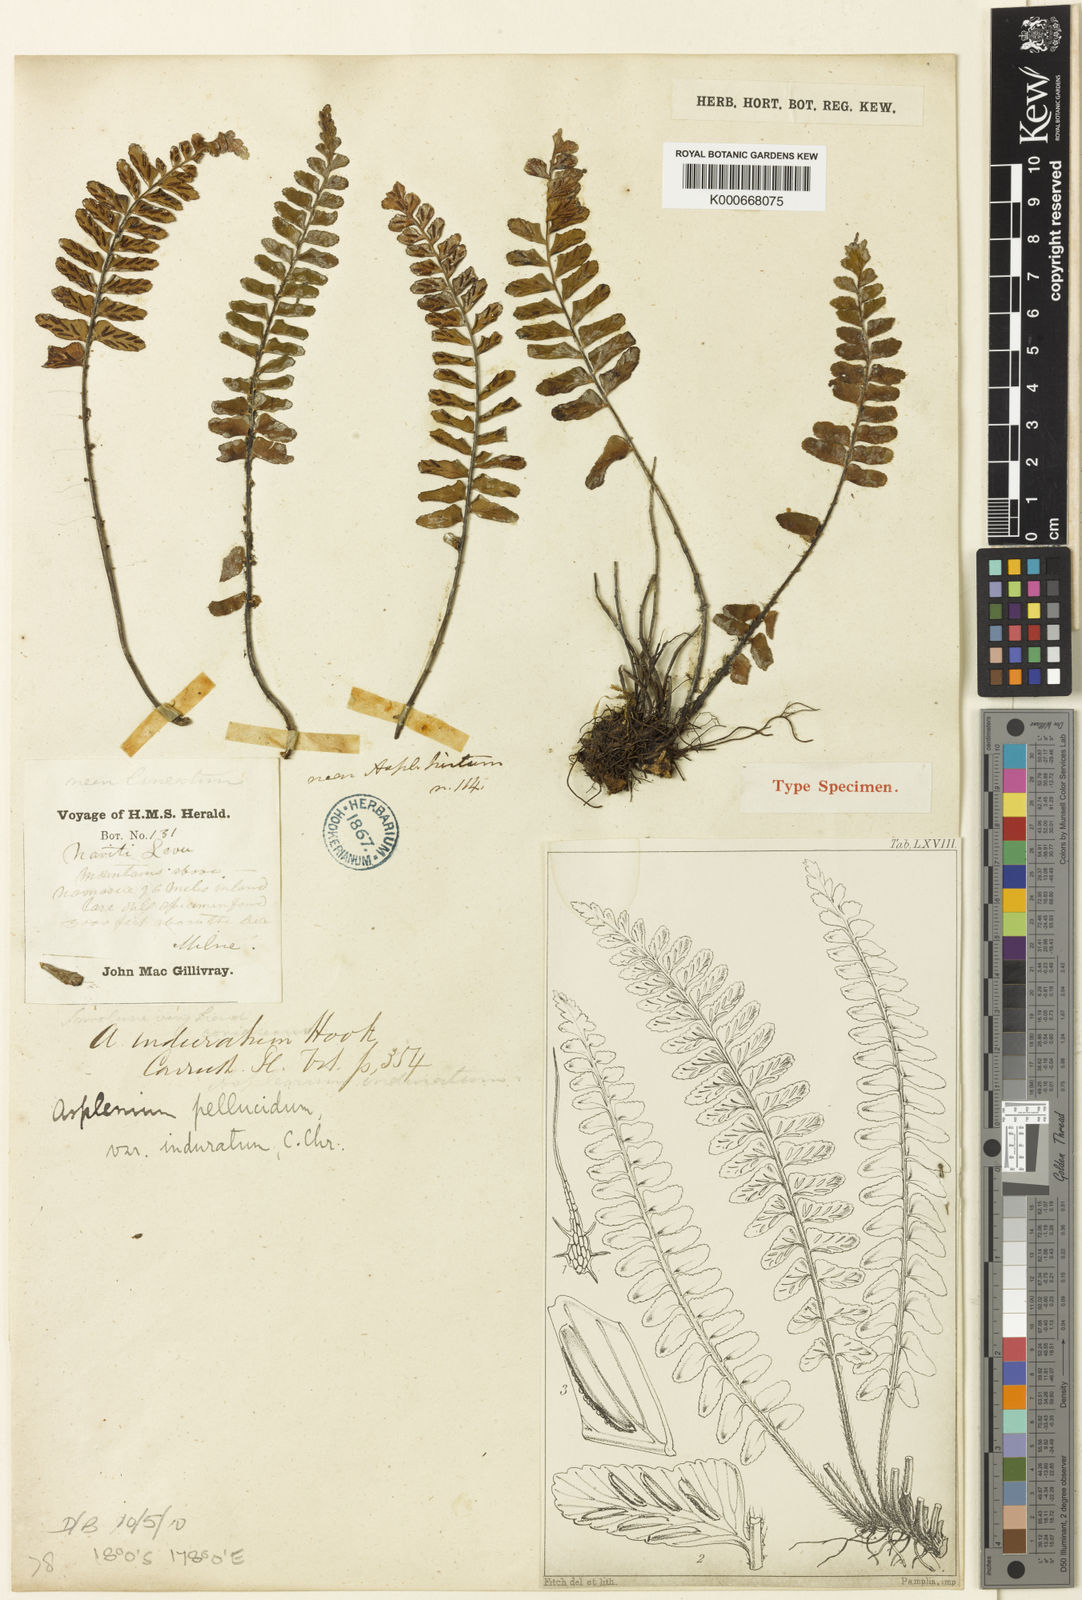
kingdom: Plantae
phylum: Tracheophyta
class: Polypodiopsida
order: Polypodiales
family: Aspleniaceae
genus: Asplenium
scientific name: Asplenium pellucidum
